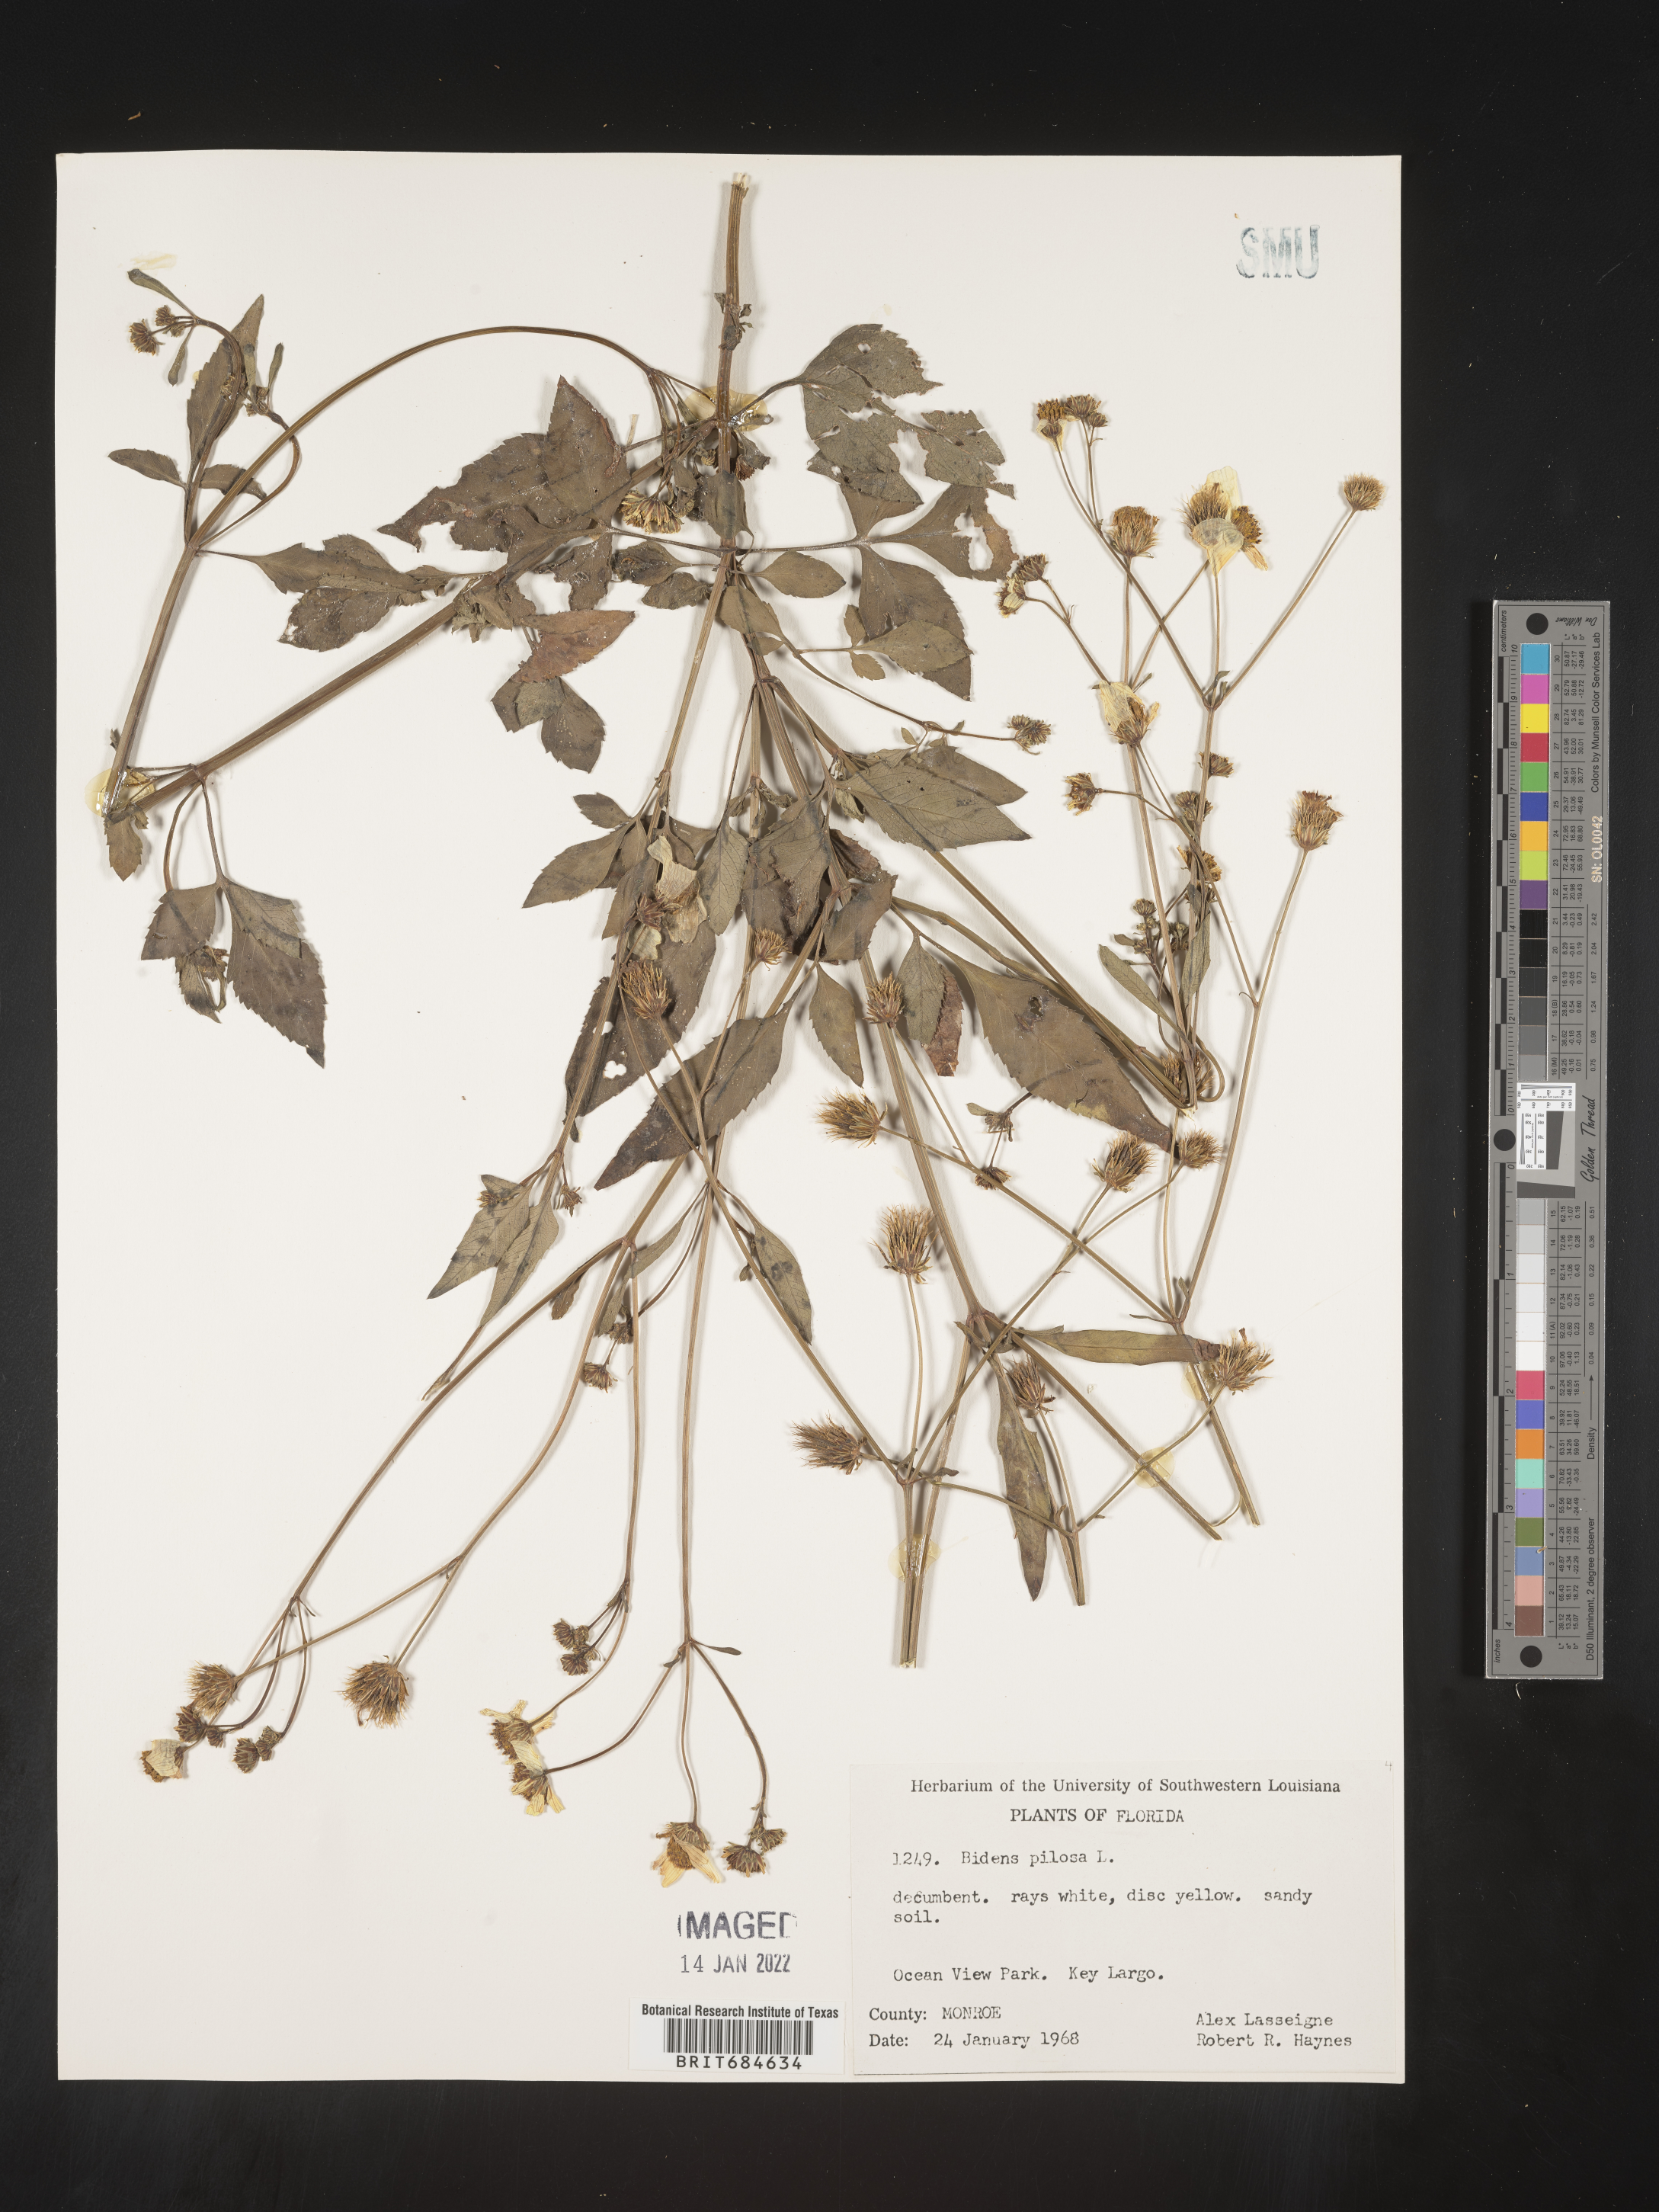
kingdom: Plantae
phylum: Tracheophyta
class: Magnoliopsida
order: Asterales
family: Asteraceae
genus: Bidens
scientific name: Bidens pilosa
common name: Black-jack
